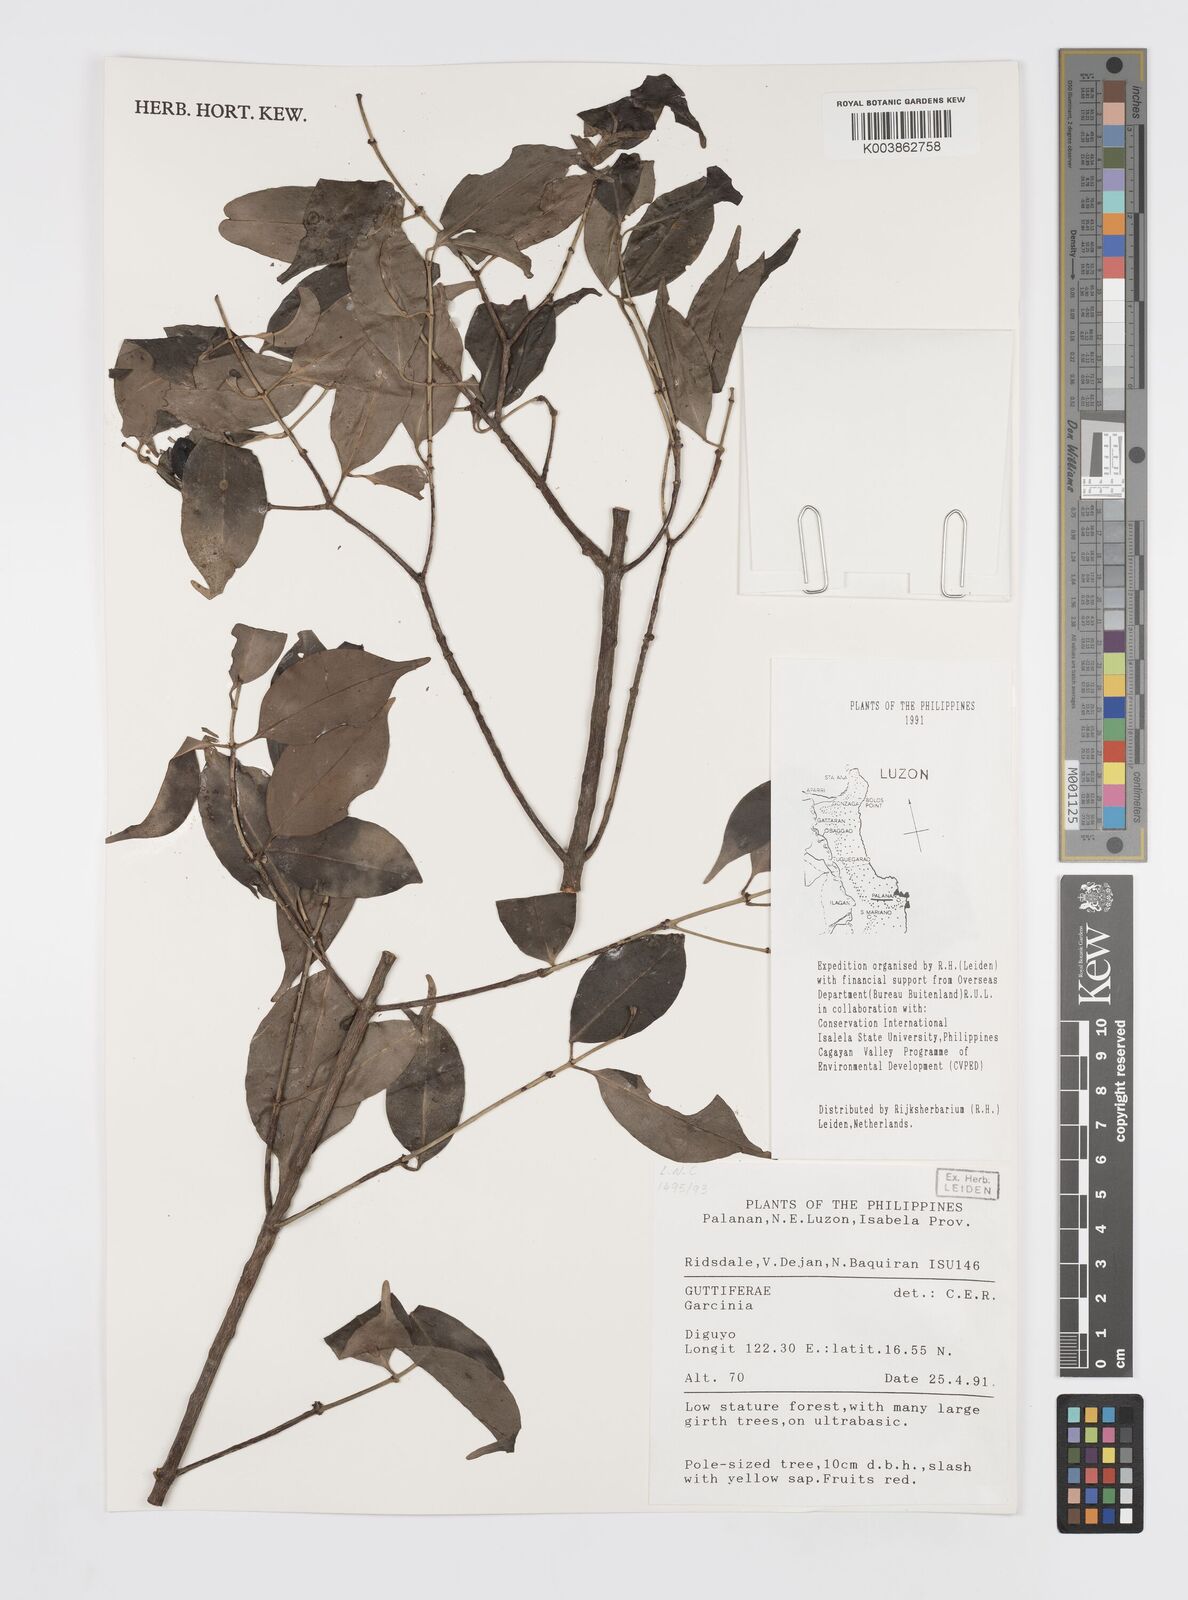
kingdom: Plantae
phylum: Tracheophyta
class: Magnoliopsida
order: Malpighiales
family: Clusiaceae
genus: Garcinia
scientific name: Garcinia
